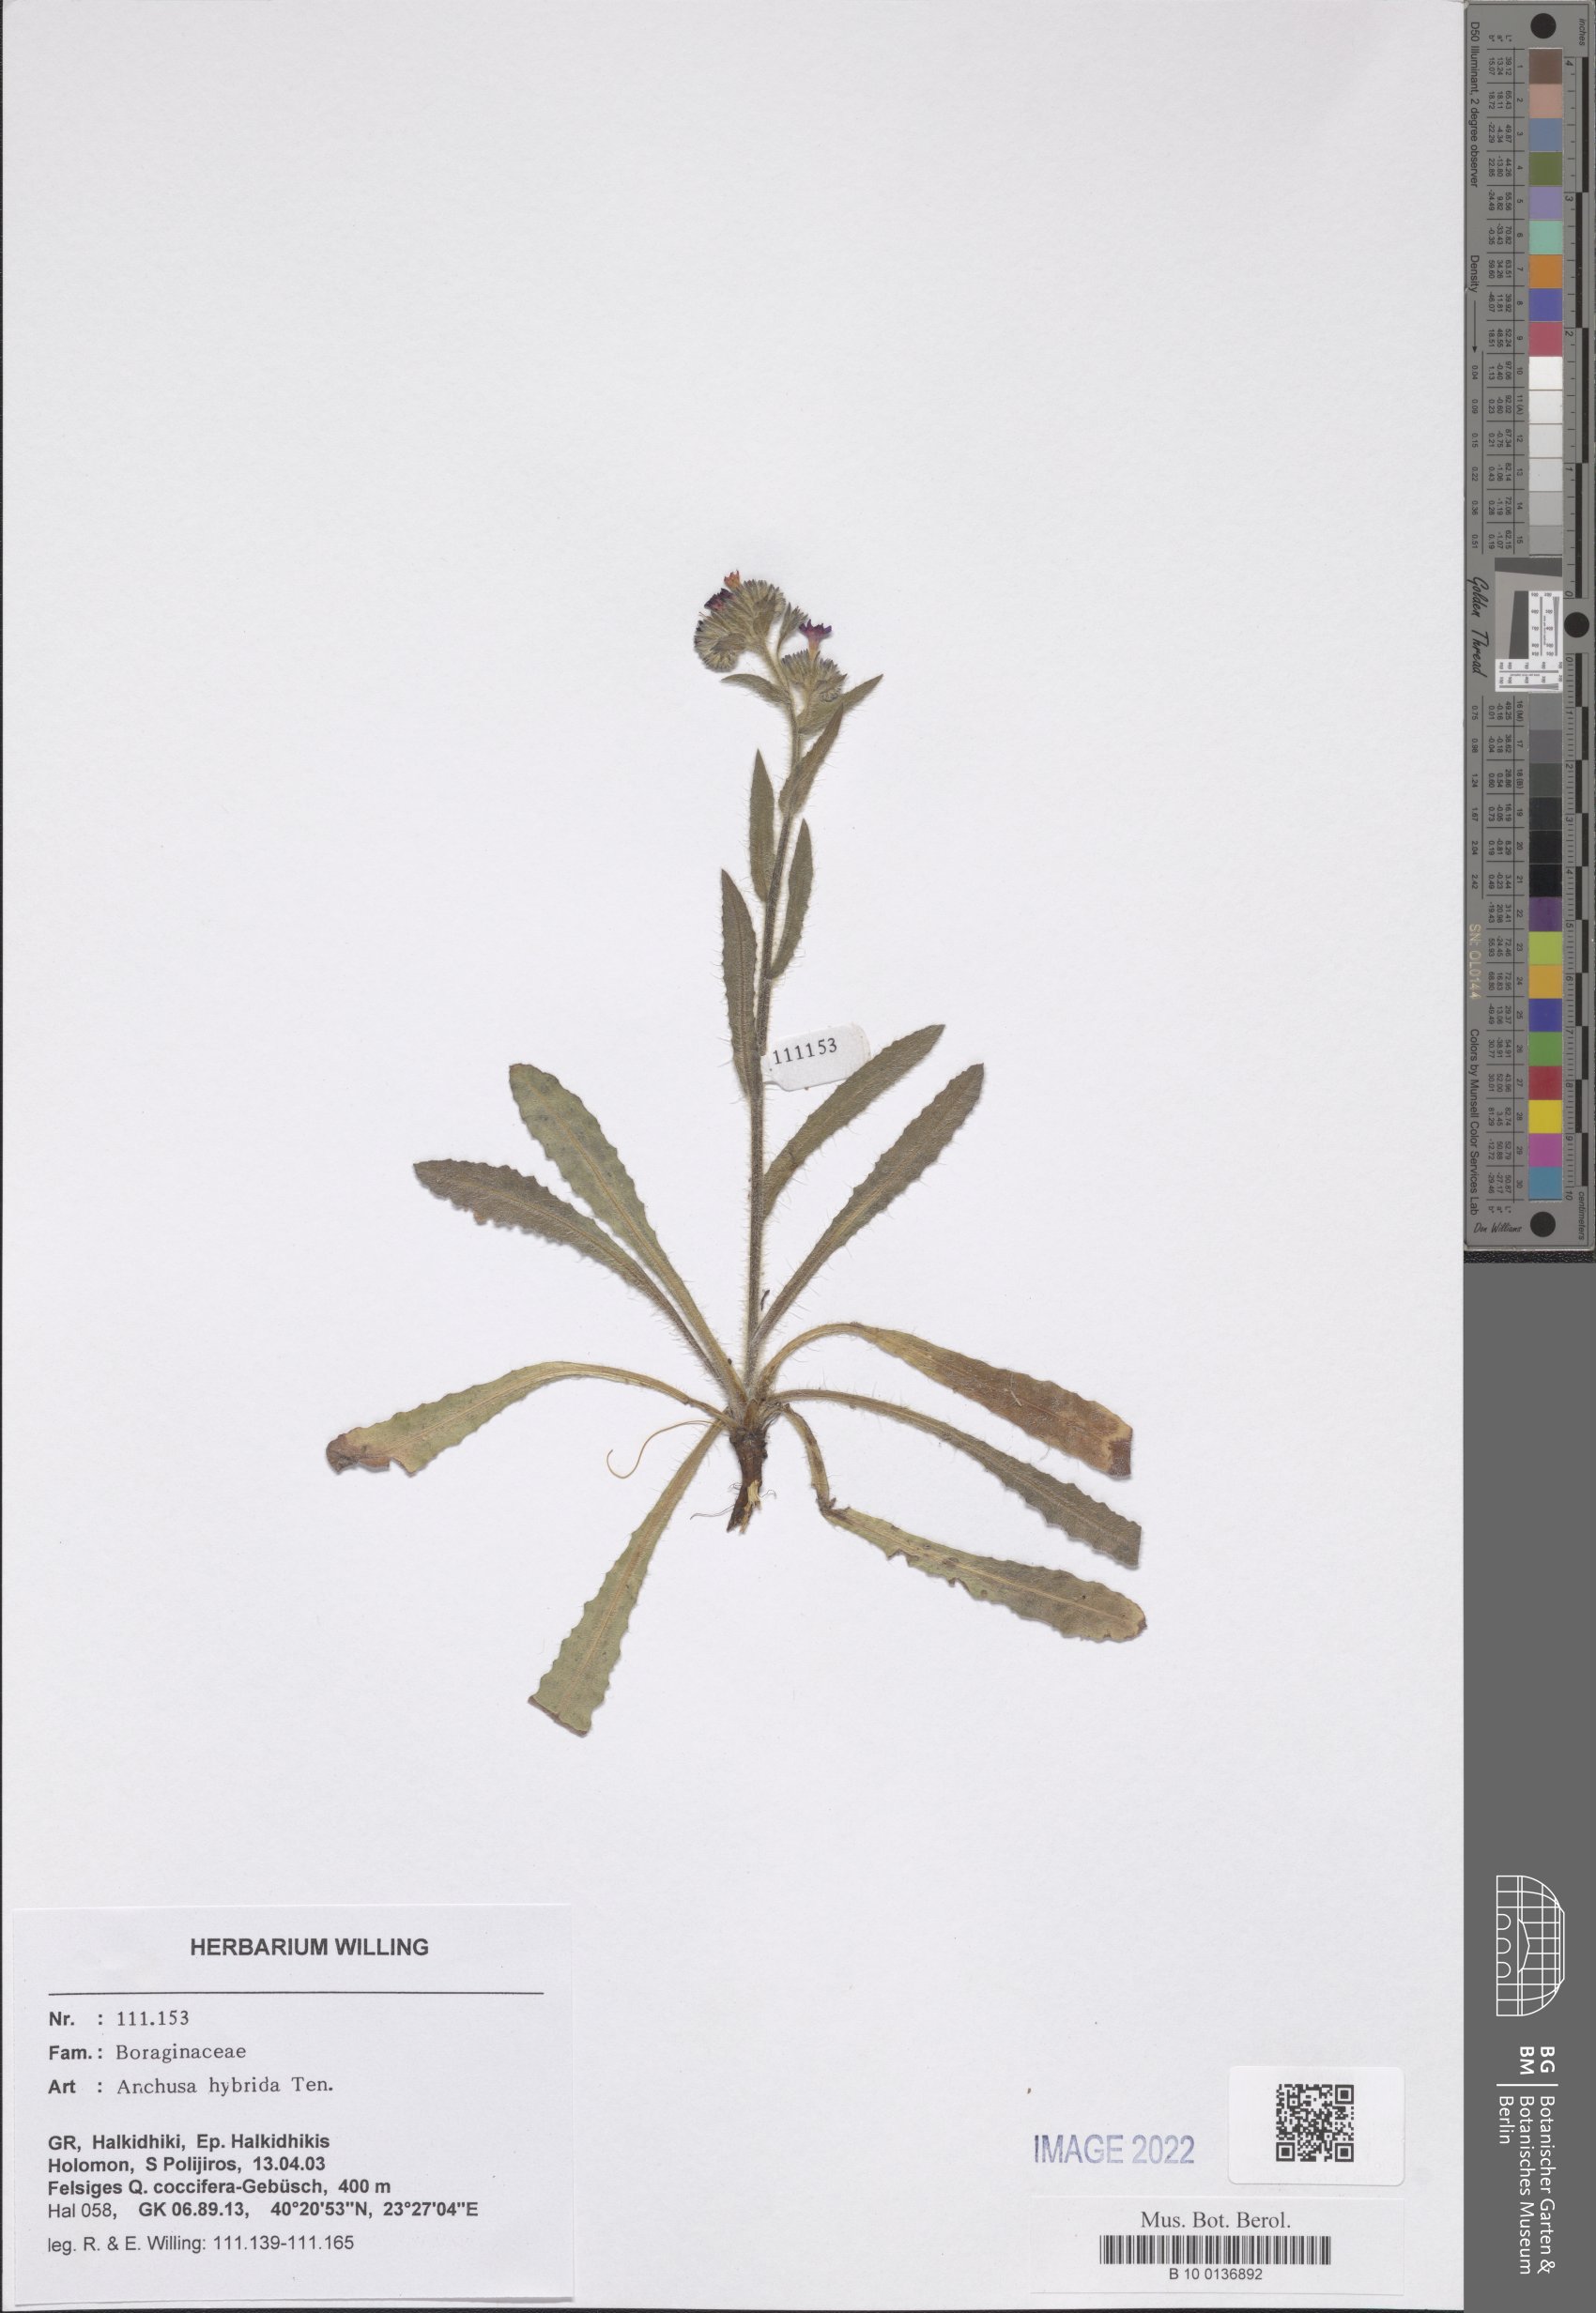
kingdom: Plantae
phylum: Tracheophyta
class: Magnoliopsida
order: Boraginales
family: Boraginaceae
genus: Anchusa
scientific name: Anchusa hybrida
